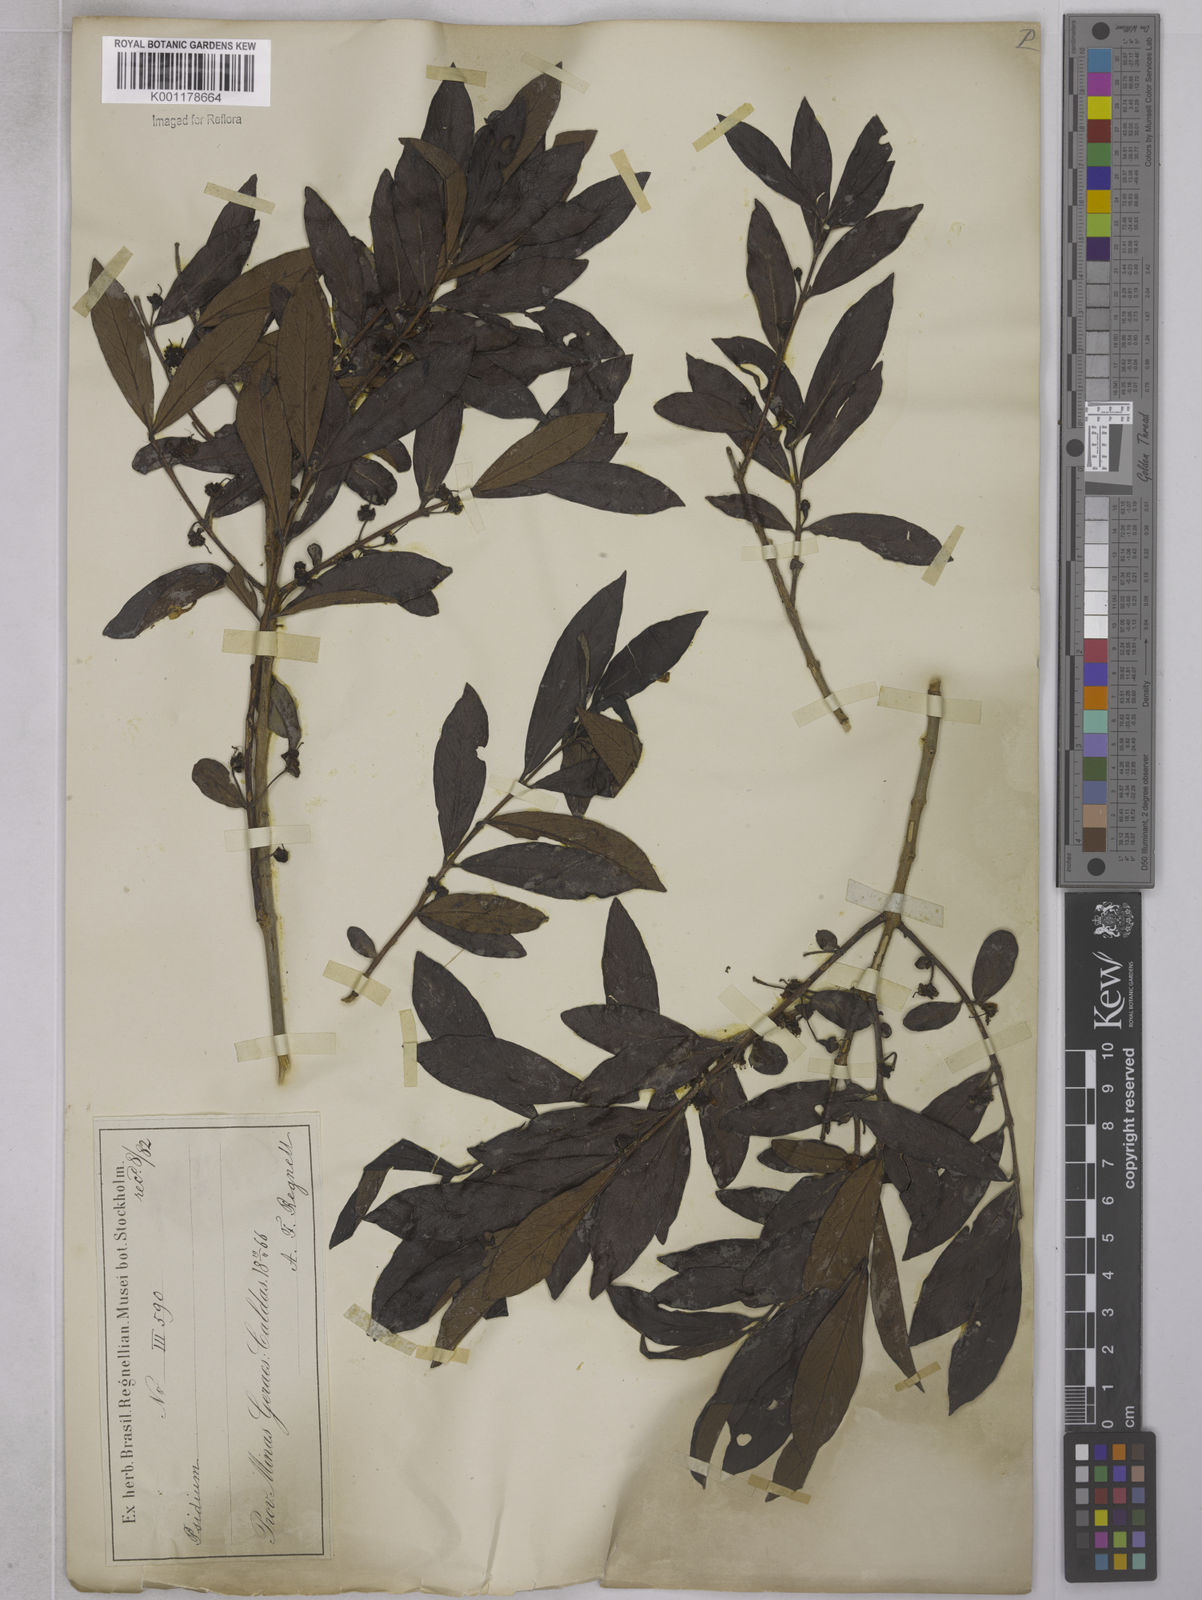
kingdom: Plantae
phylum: Tracheophyta
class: Magnoliopsida
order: Myrtales
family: Myrtaceae
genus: Psidium
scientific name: Psidium grandifolium
